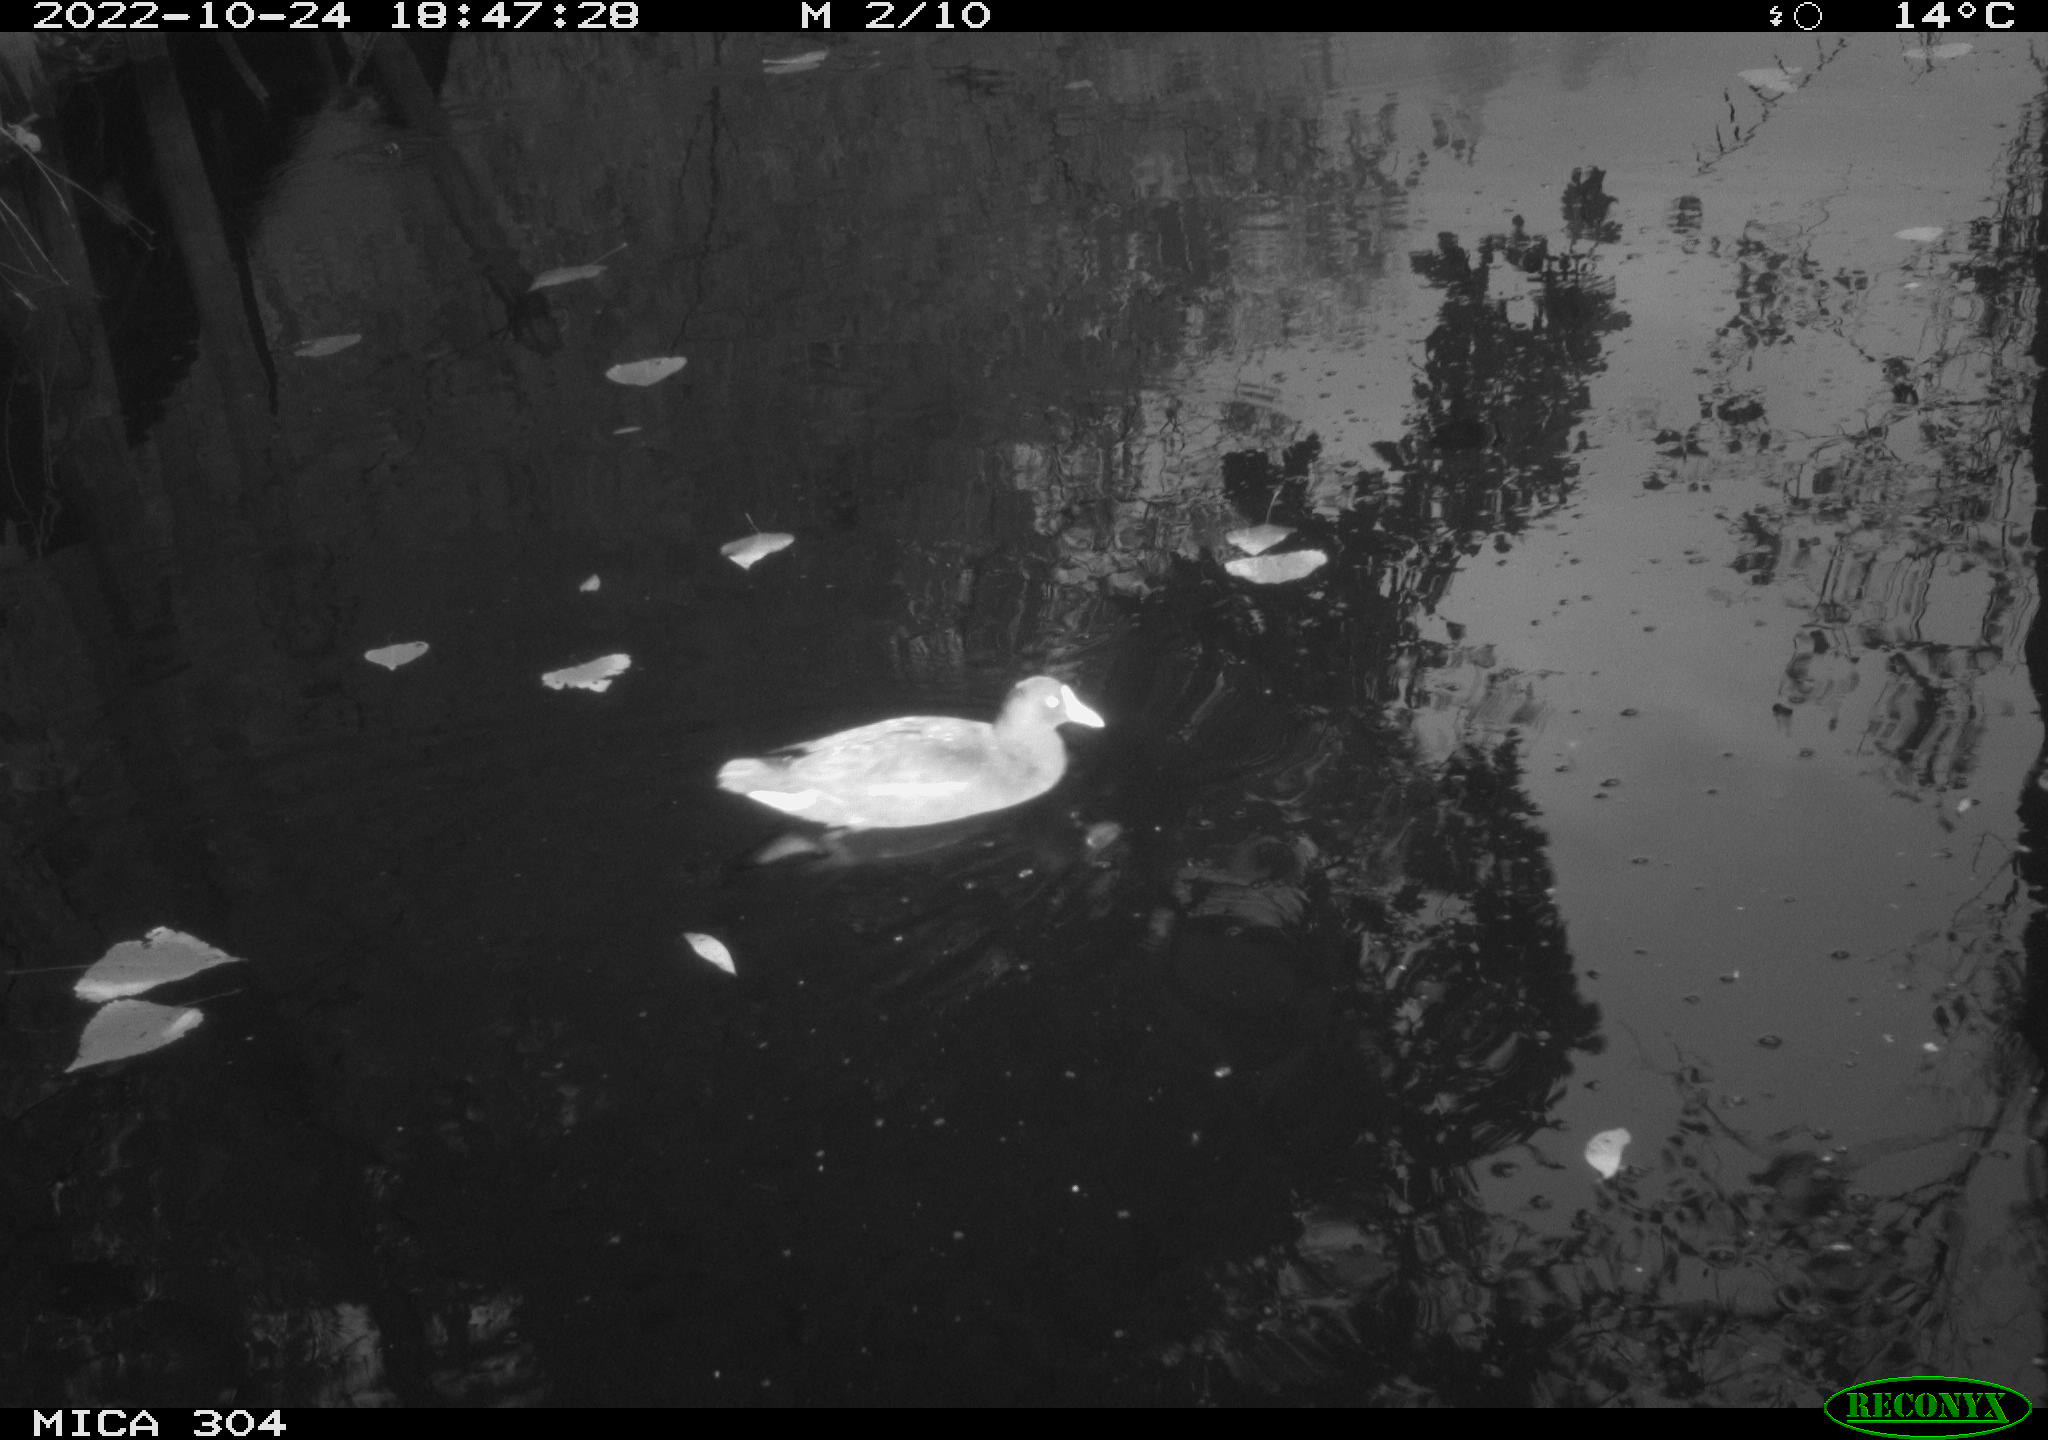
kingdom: Animalia
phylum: Chordata
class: Aves
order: Gruiformes
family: Rallidae
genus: Gallinula
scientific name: Gallinula chloropus
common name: Common moorhen
